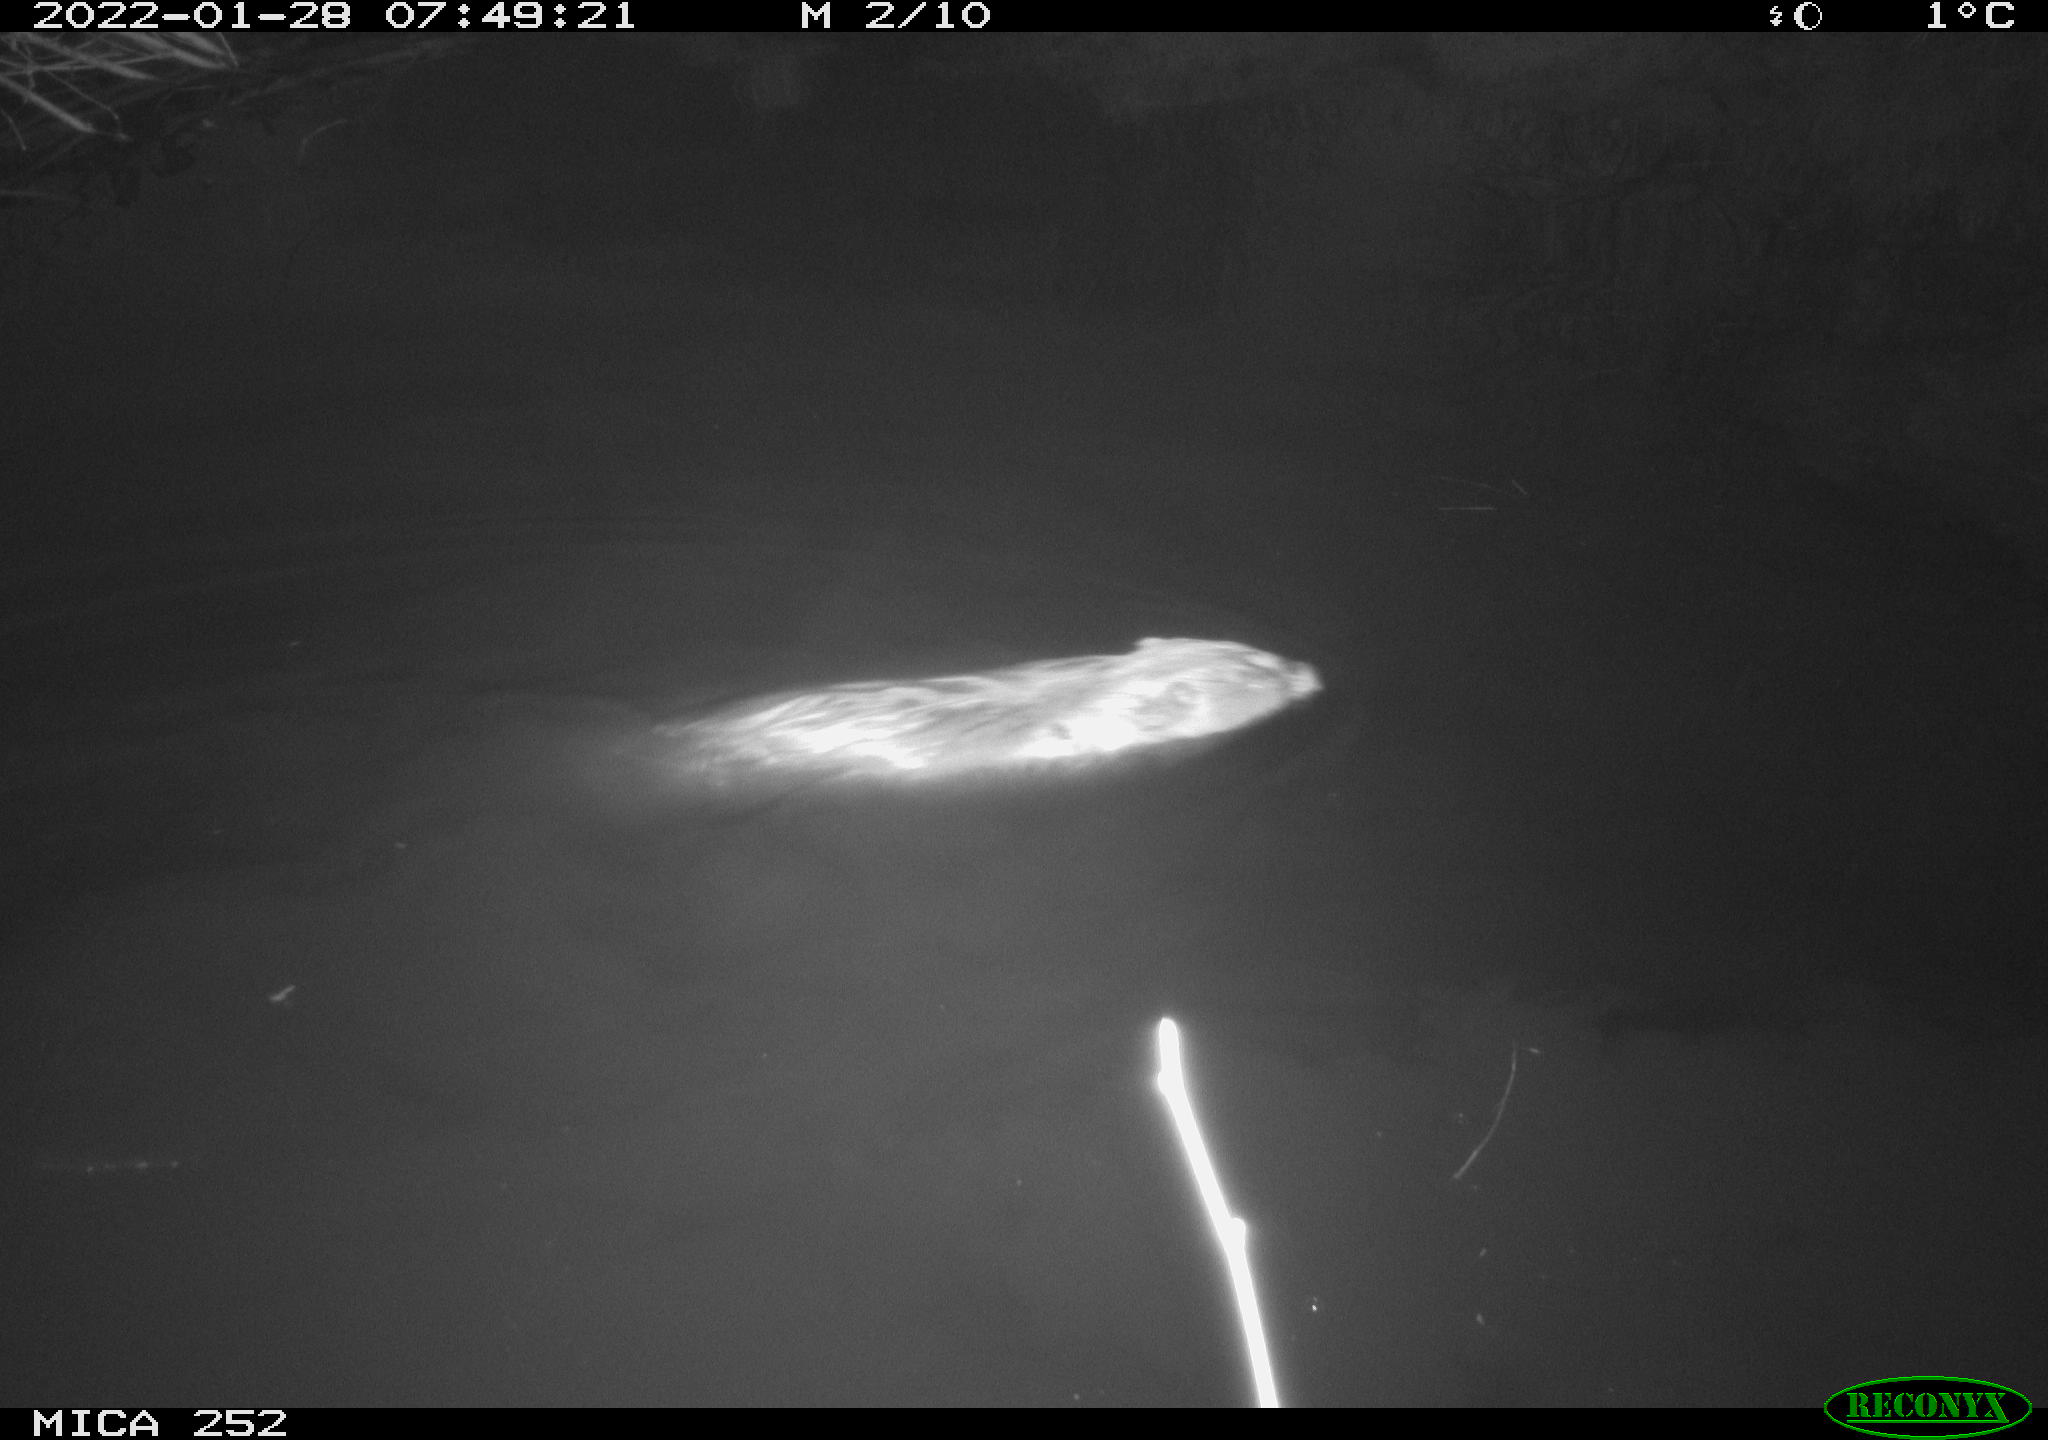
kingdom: Animalia
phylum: Chordata
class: Mammalia
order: Rodentia
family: Castoridae
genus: Castor
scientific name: Castor fiber
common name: Eurasian beaver
